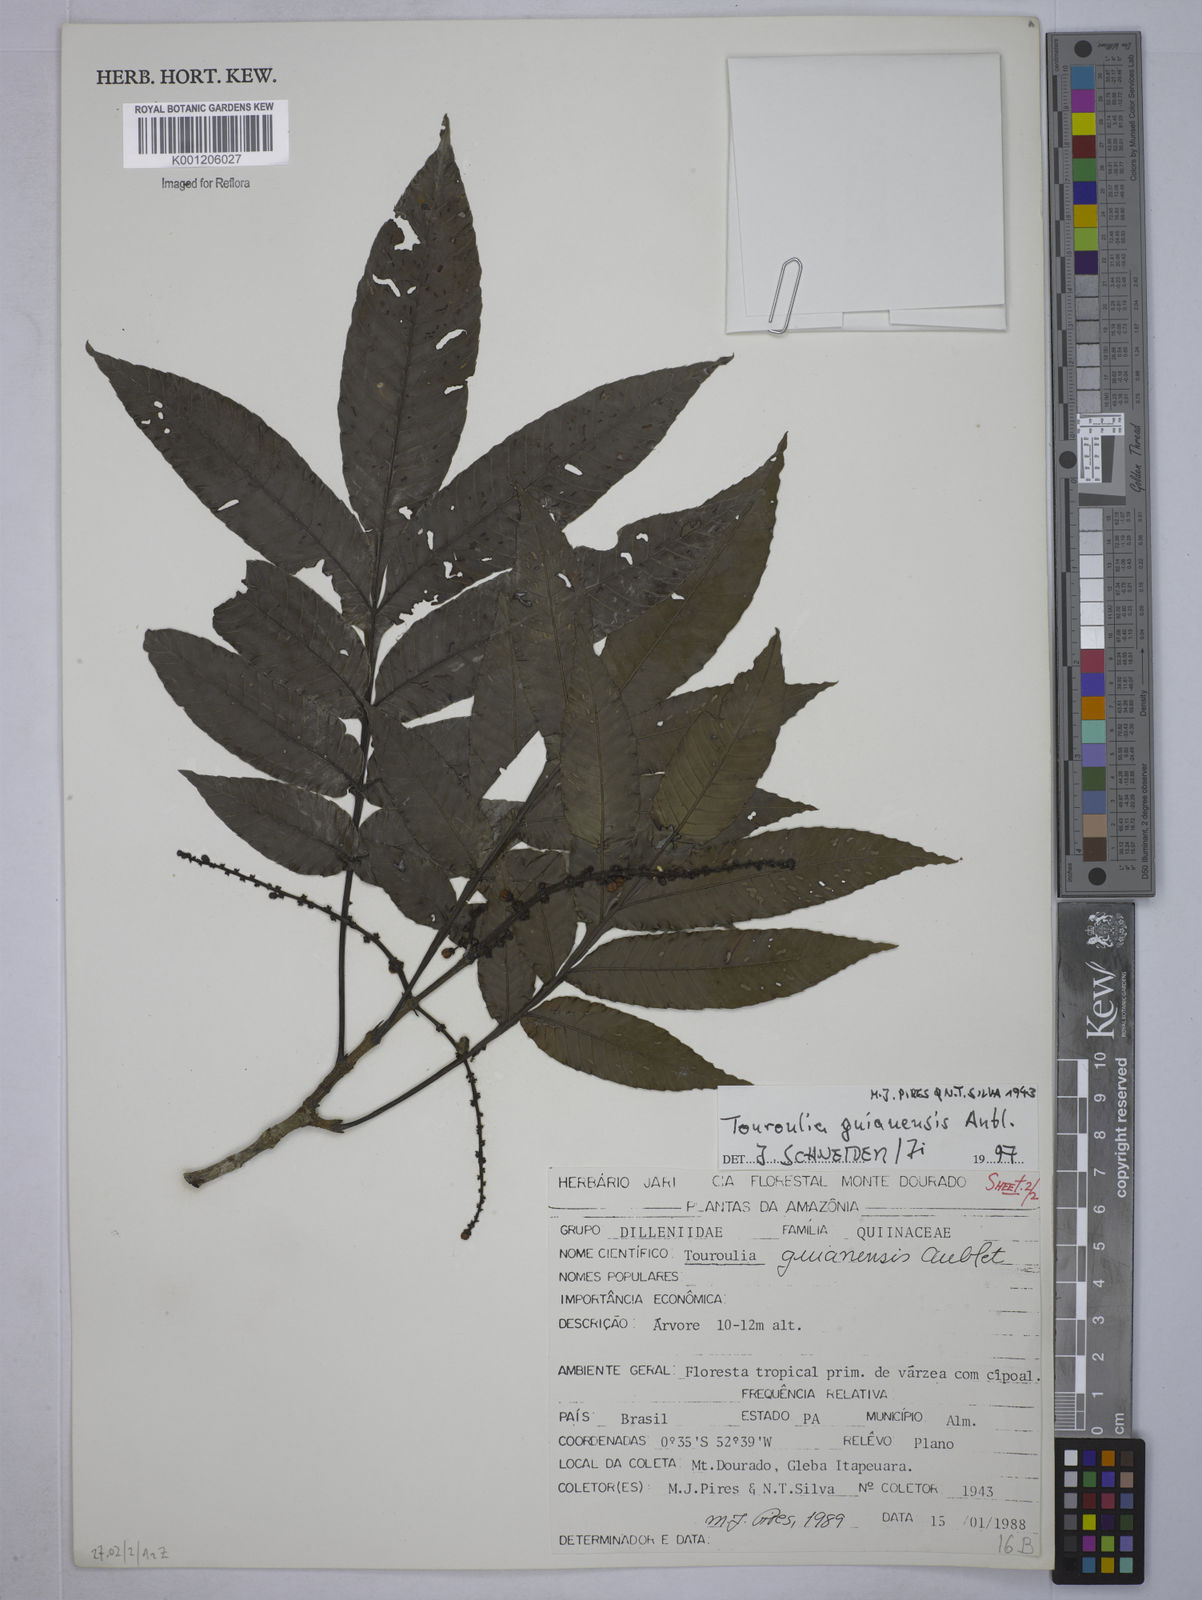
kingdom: Plantae
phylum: Tracheophyta
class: Magnoliopsida
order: Malpighiales
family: Quiinaceae
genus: Touroulia
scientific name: Touroulia guianensis
